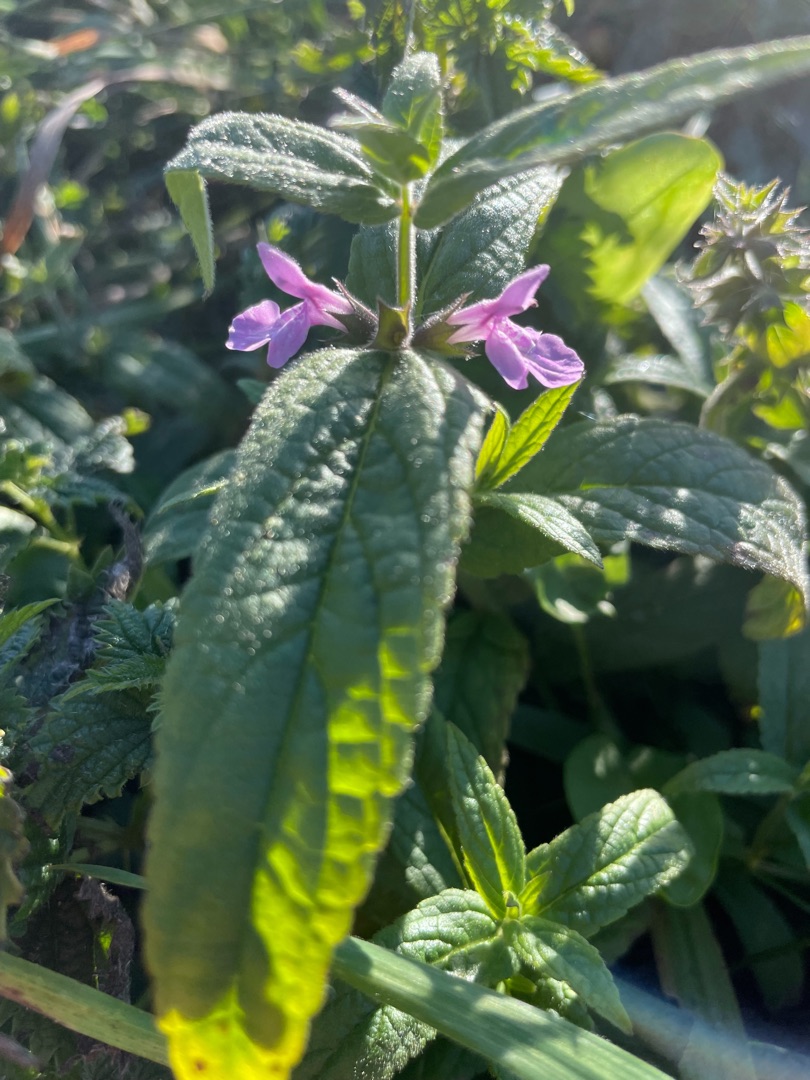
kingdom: Plantae
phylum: Tracheophyta
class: Magnoliopsida
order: Lamiales
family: Lamiaceae
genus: Stachys
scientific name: Stachys palustris
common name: Kær-galtetand
